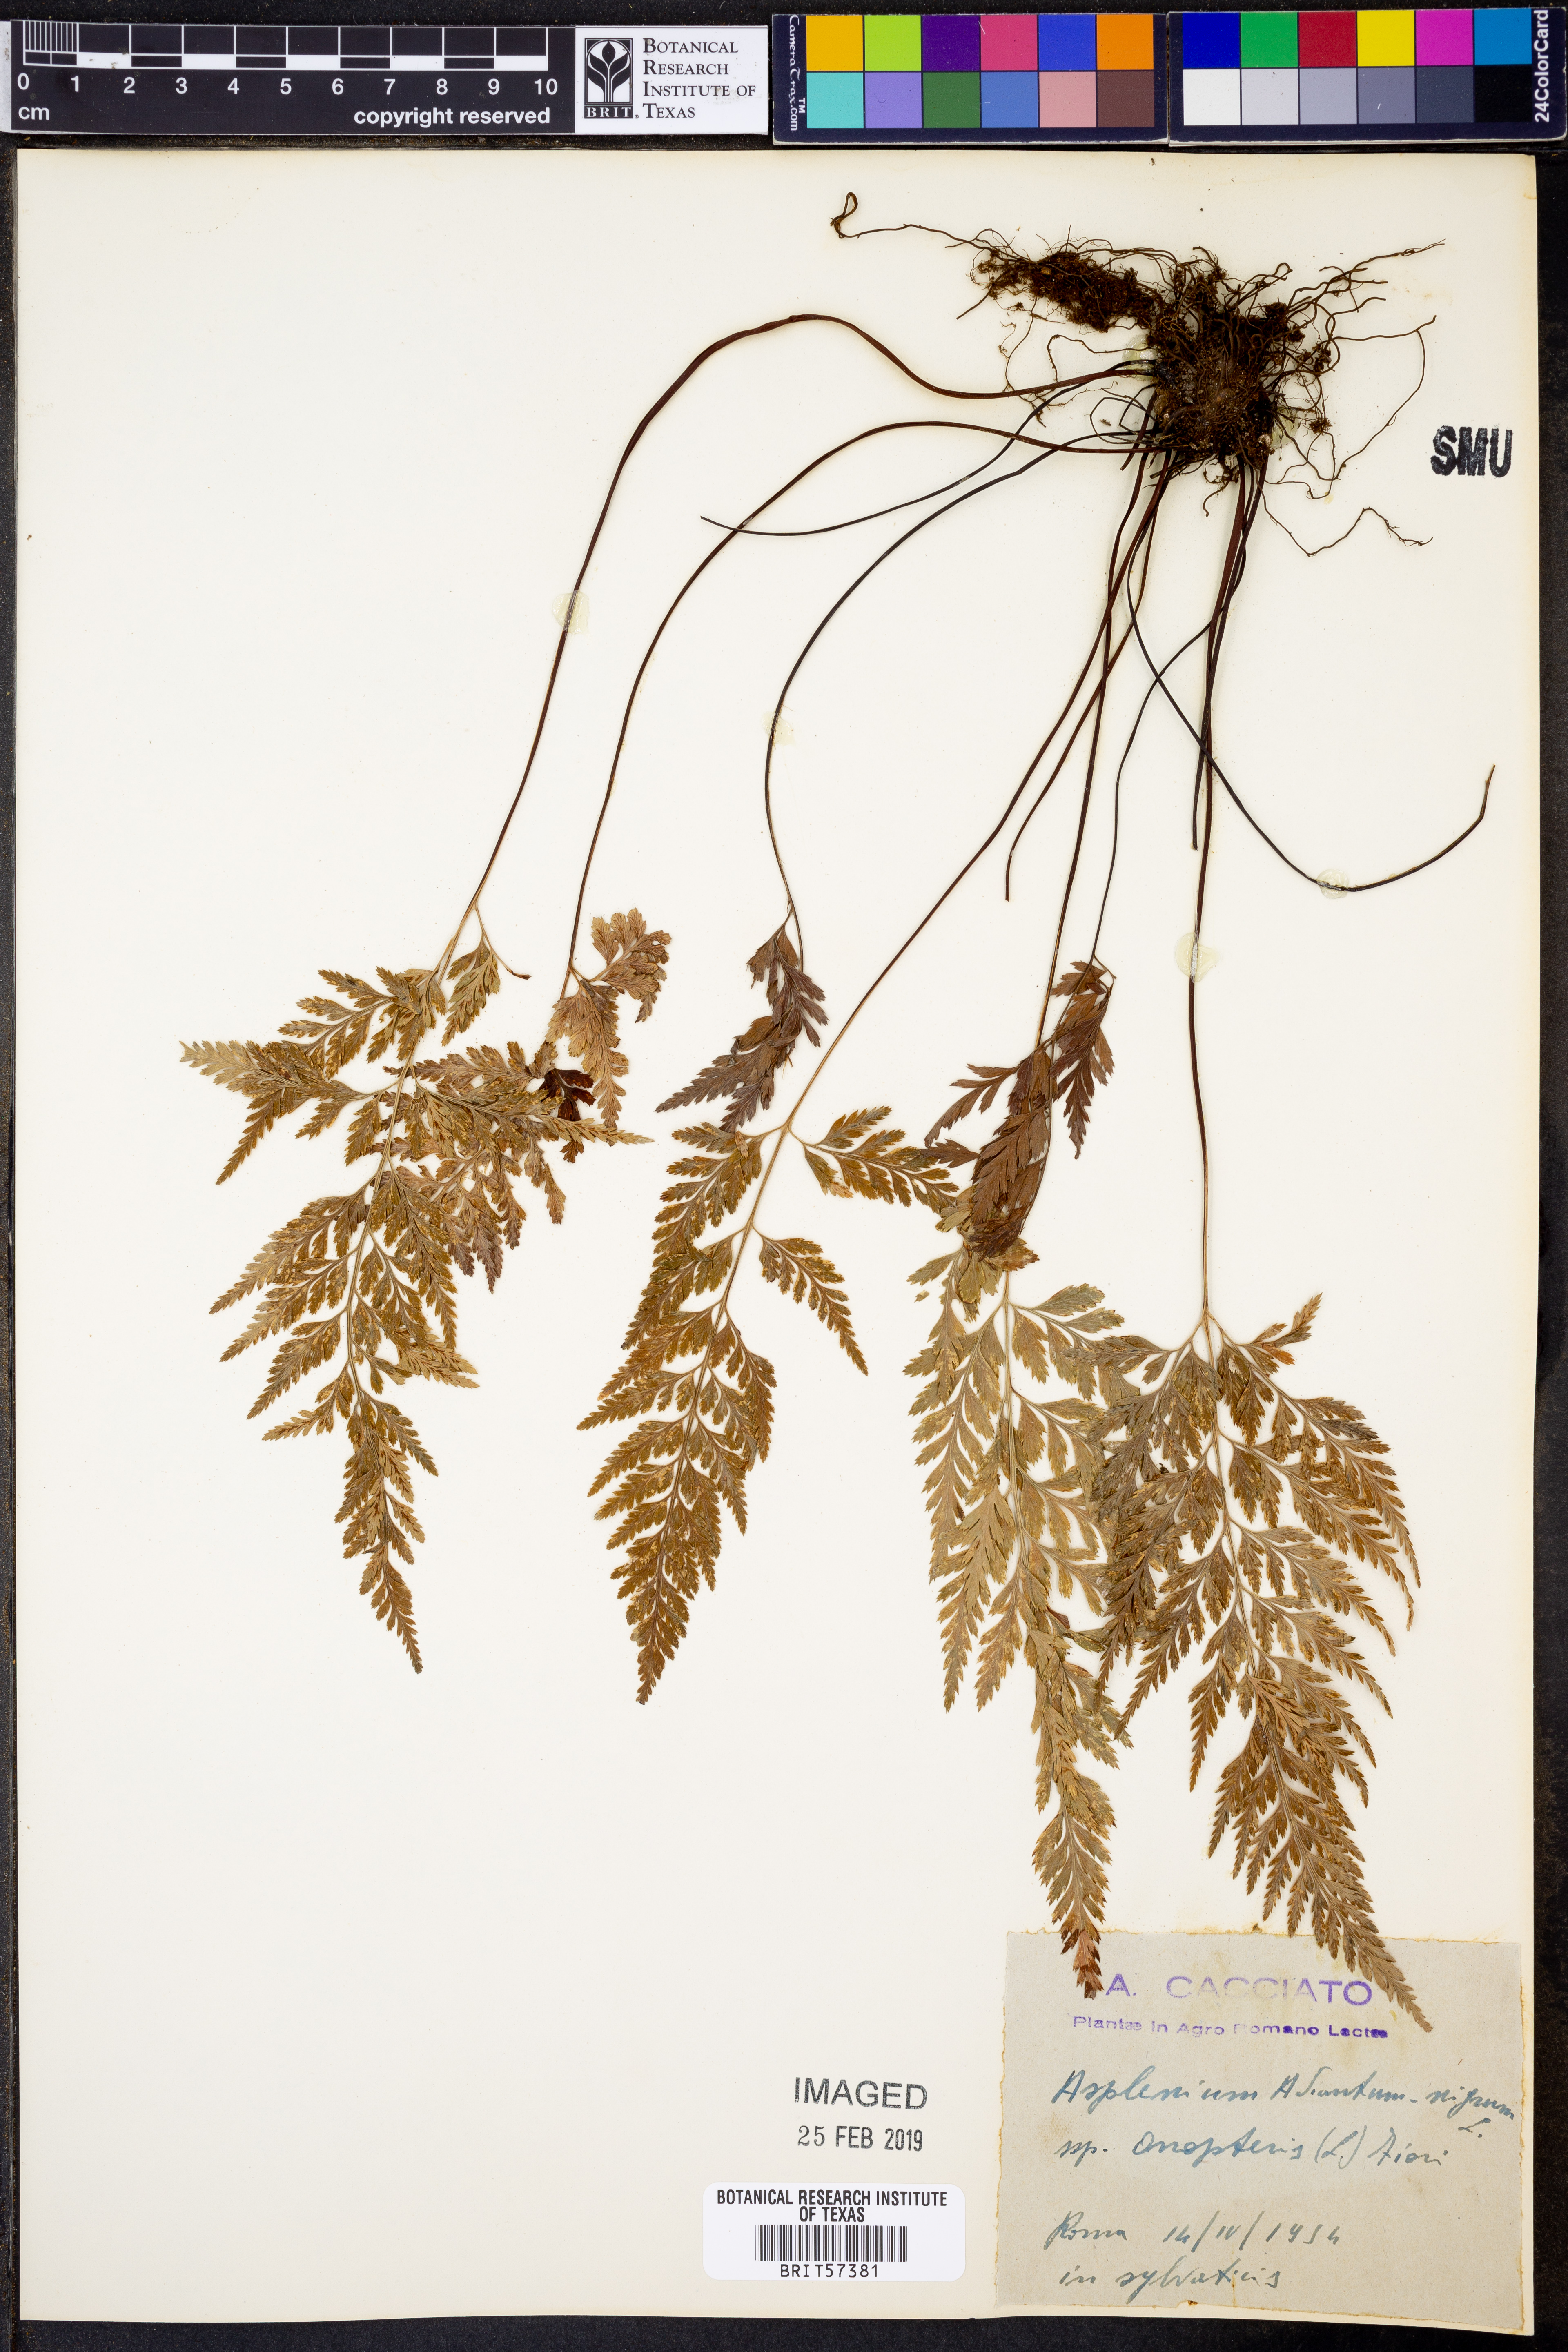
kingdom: Plantae
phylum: Tracheophyta
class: Polypodiopsida
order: Polypodiales
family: Aspleniaceae
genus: Asplenium
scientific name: Asplenium onopteris
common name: Irish spleenwort
